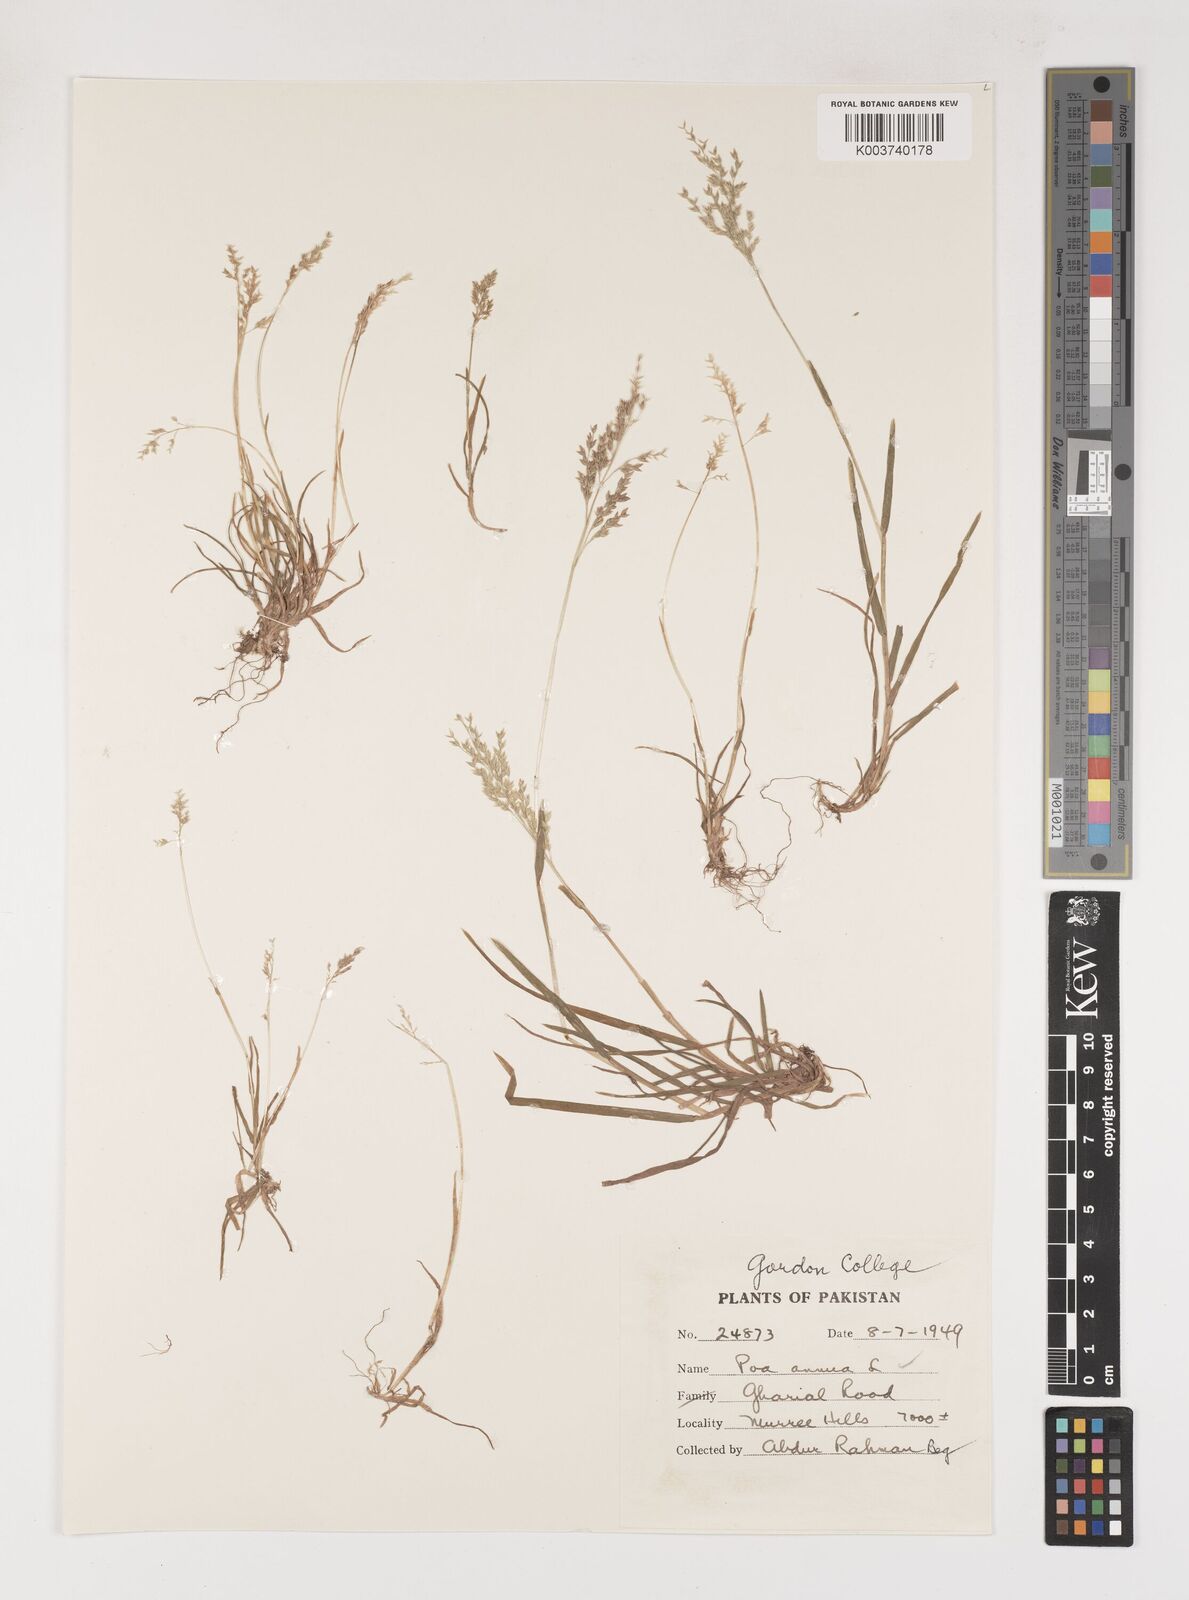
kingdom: Plantae
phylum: Tracheophyta
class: Liliopsida
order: Poales
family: Poaceae
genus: Poa
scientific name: Poa annua
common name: Annual bluegrass
